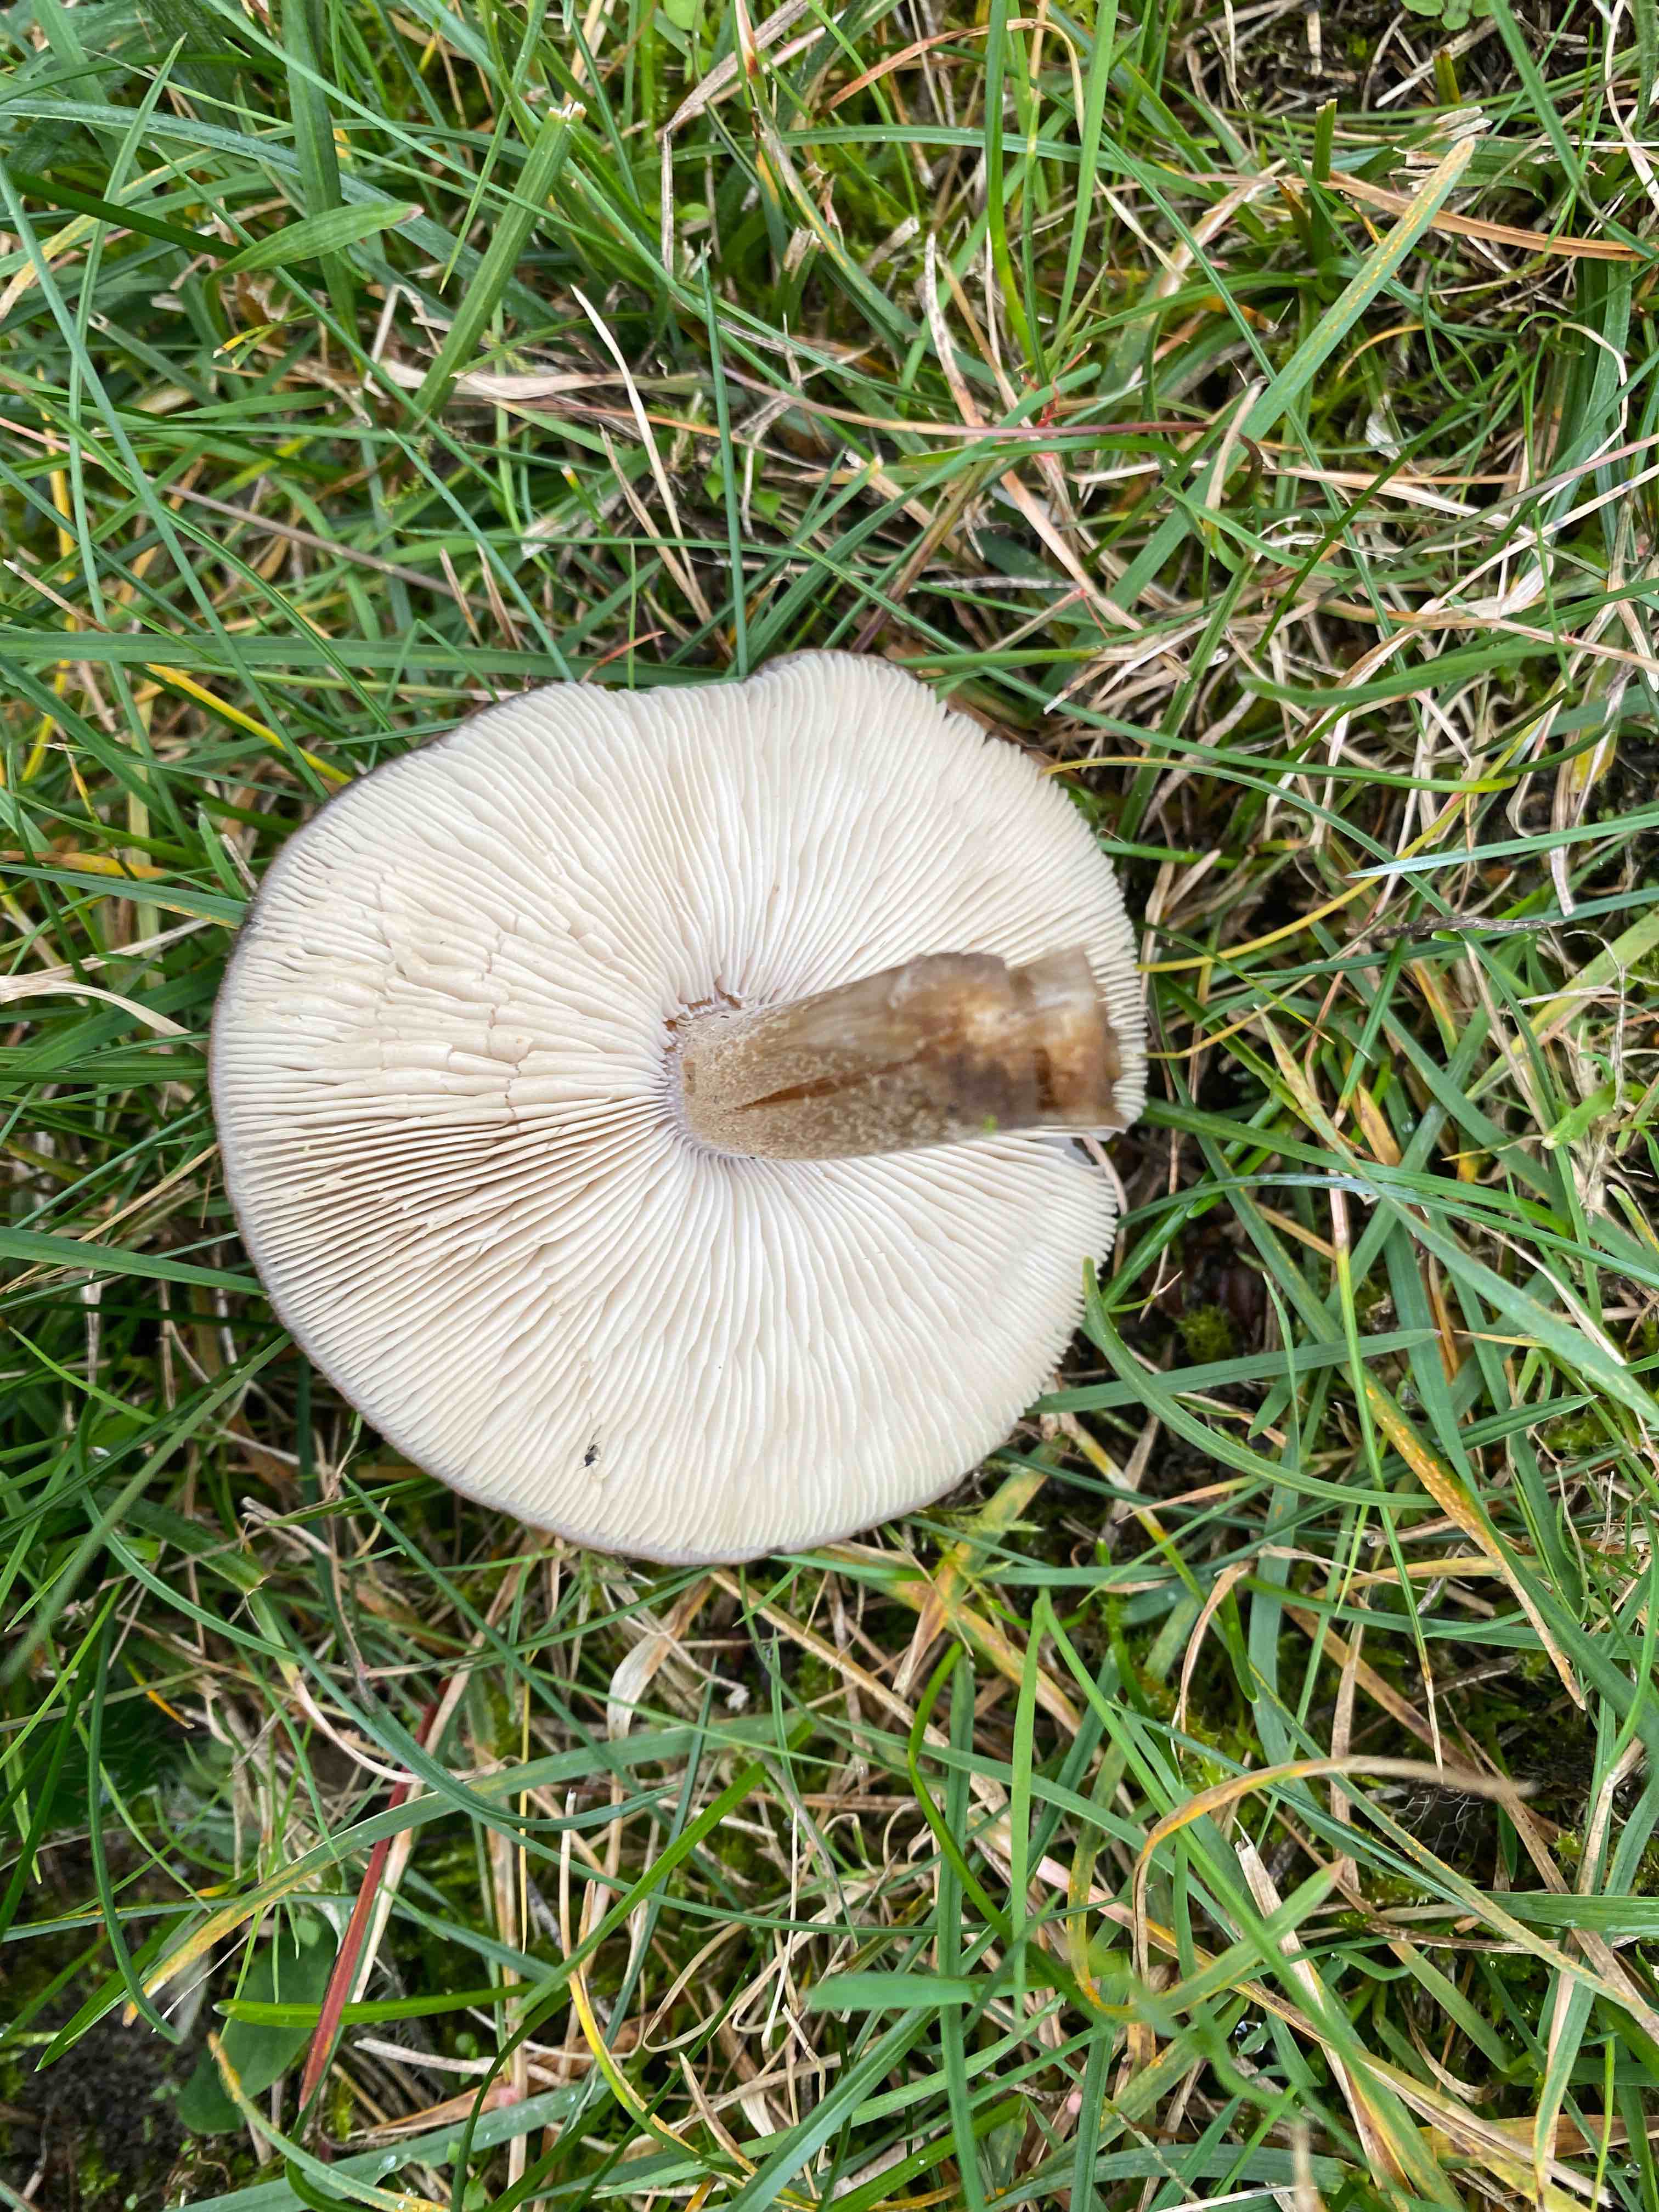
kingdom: Fungi
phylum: Basidiomycota
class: Agaricomycetes
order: Agaricales
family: Tricholomataceae
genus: Melanoleuca
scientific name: Melanoleuca
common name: munkehat
